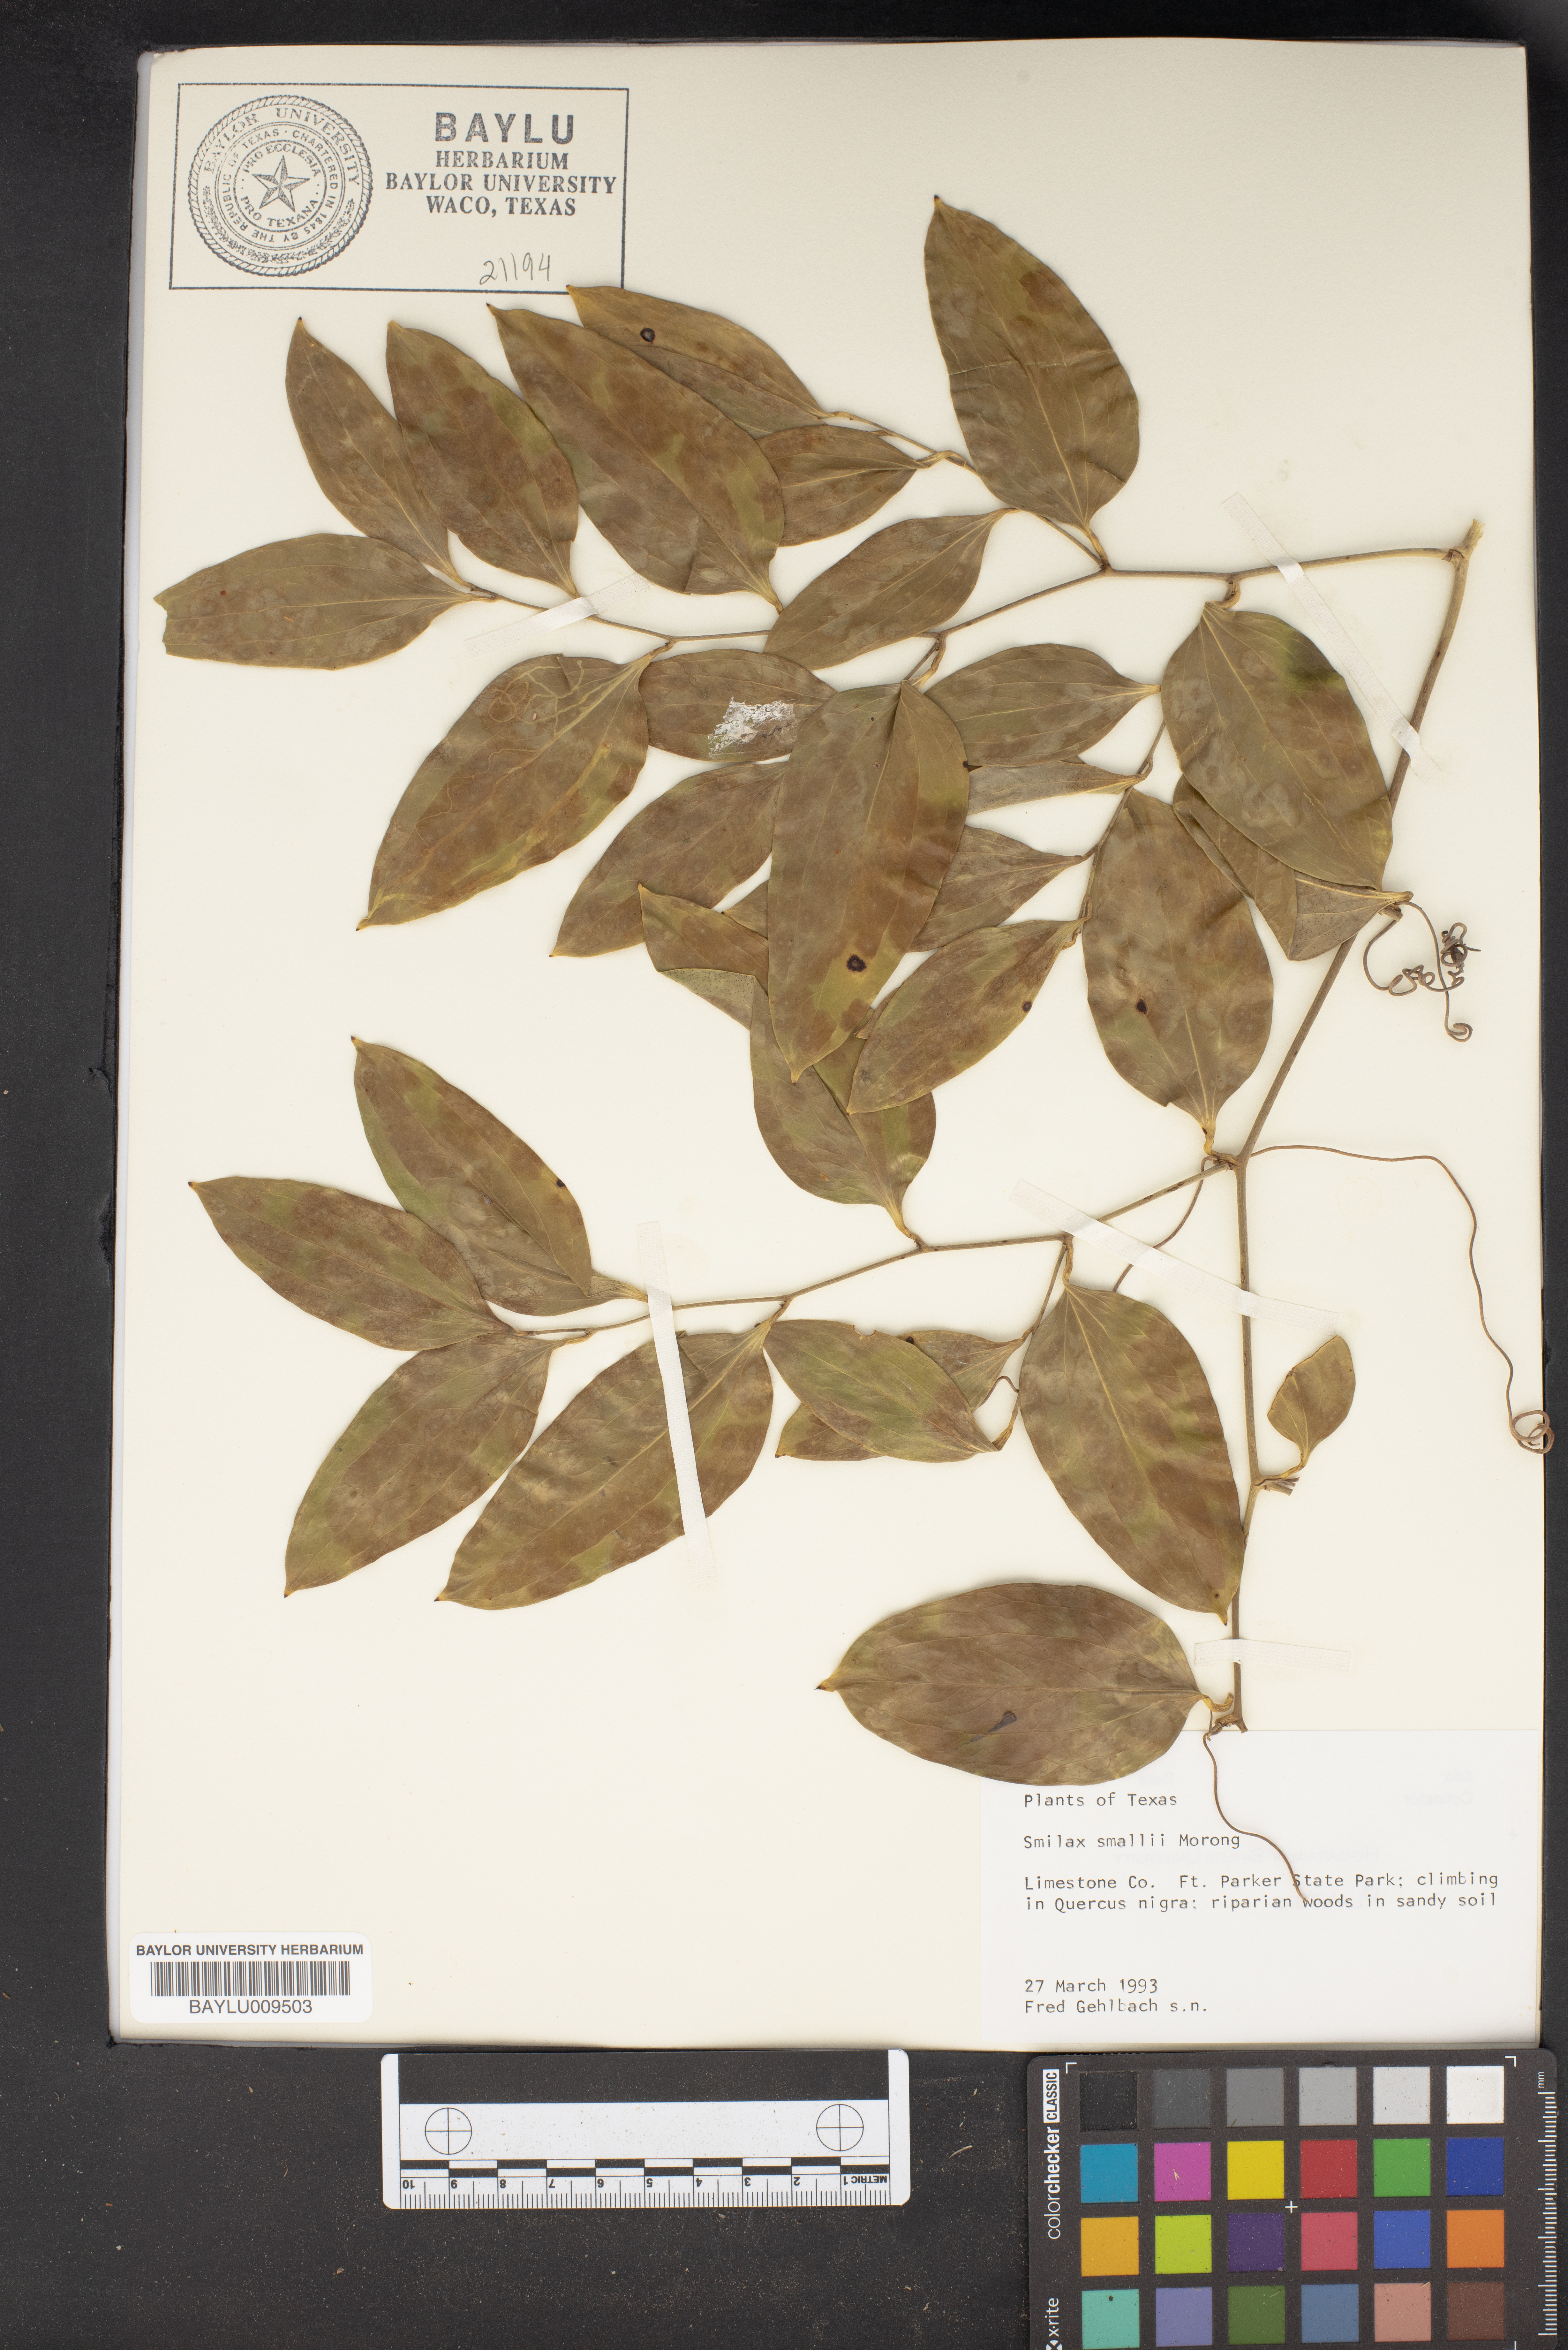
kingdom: Plantae
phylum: Tracheophyta
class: Liliopsida
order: Liliales
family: Smilacaceae
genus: Smilax
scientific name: Smilax maritima
